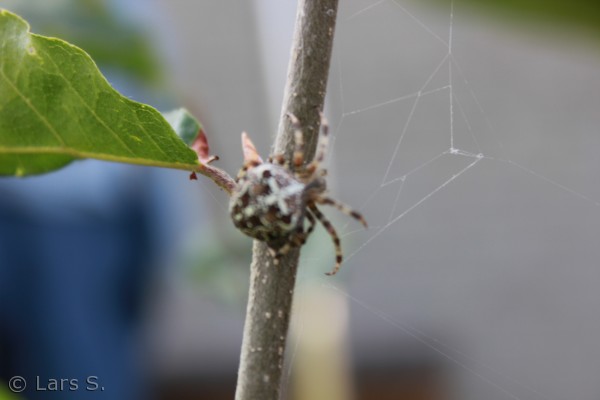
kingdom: Animalia
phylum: Arthropoda
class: Arachnida
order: Araneae
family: Araneidae
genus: Araneus
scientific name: Araneus diadematus
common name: Korsedderkop
